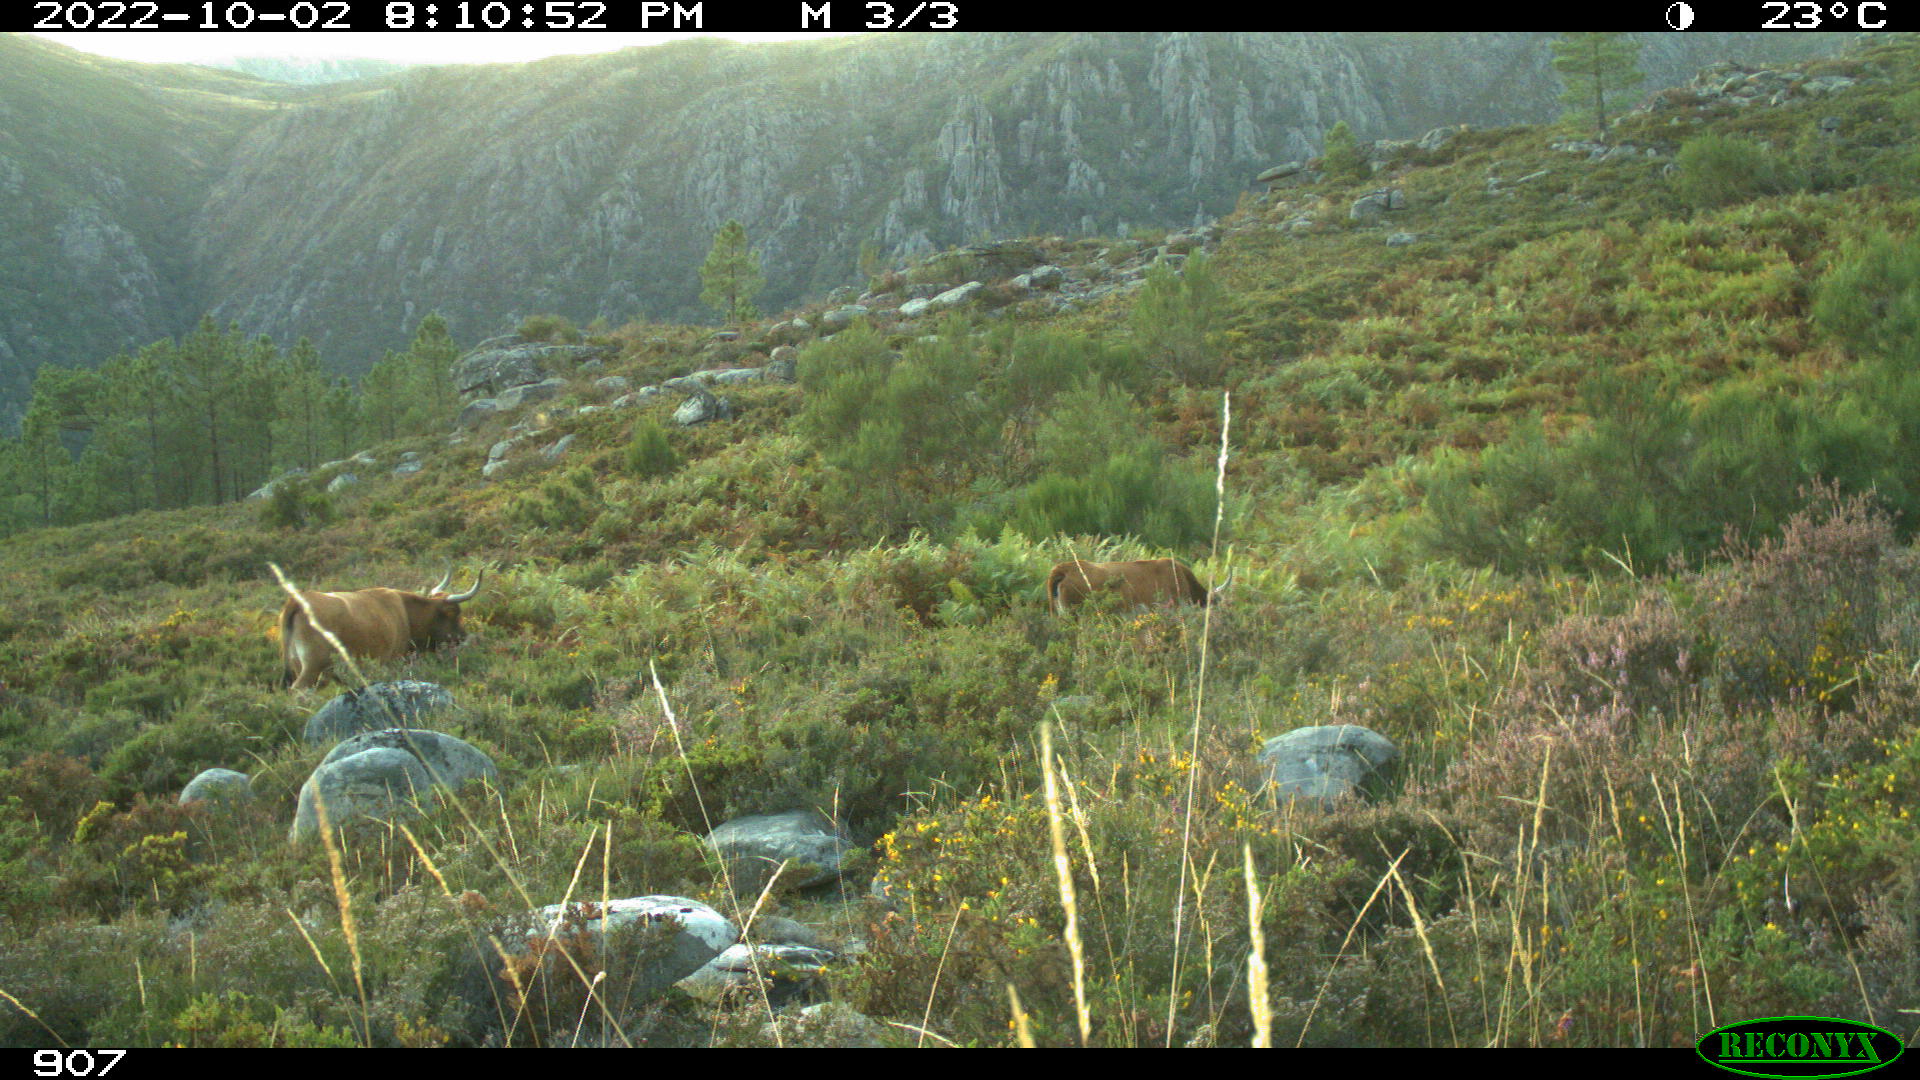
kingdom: Animalia
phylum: Chordata
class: Mammalia
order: Artiodactyla
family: Bovidae
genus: Bos
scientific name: Bos taurus
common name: Domesticated cattle
